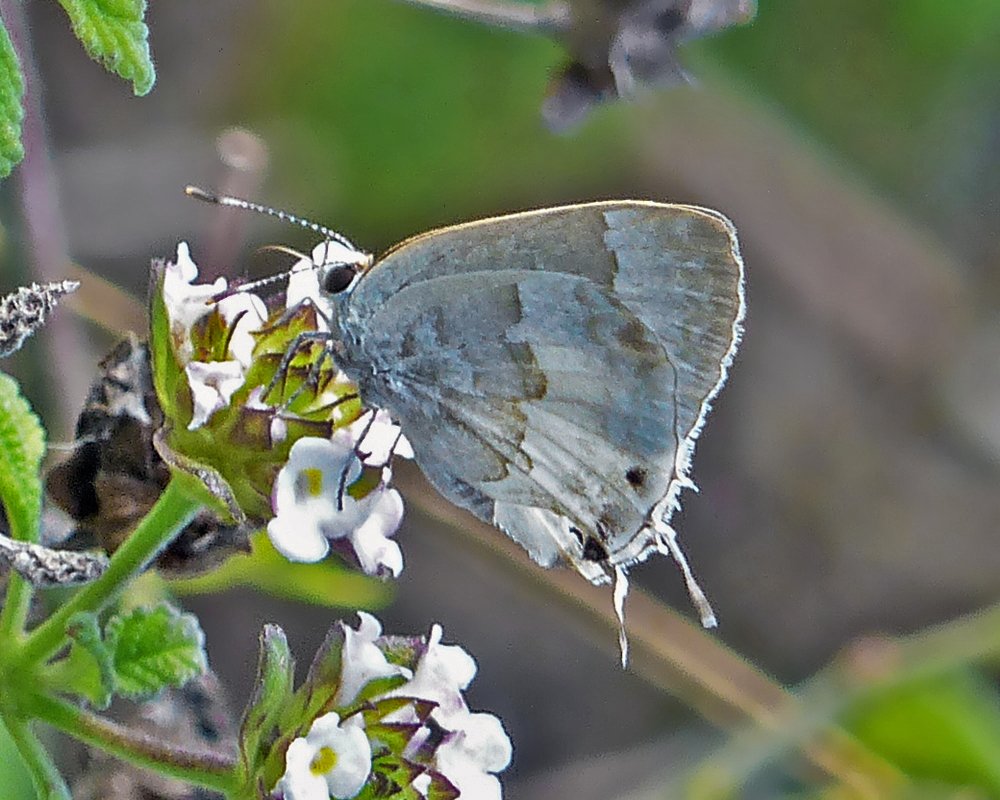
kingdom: Animalia
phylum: Arthropoda
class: Insecta
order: Lepidoptera
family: Lycaenidae
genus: Strymon
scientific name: Strymon albata
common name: White Scrub-Hairstreak
